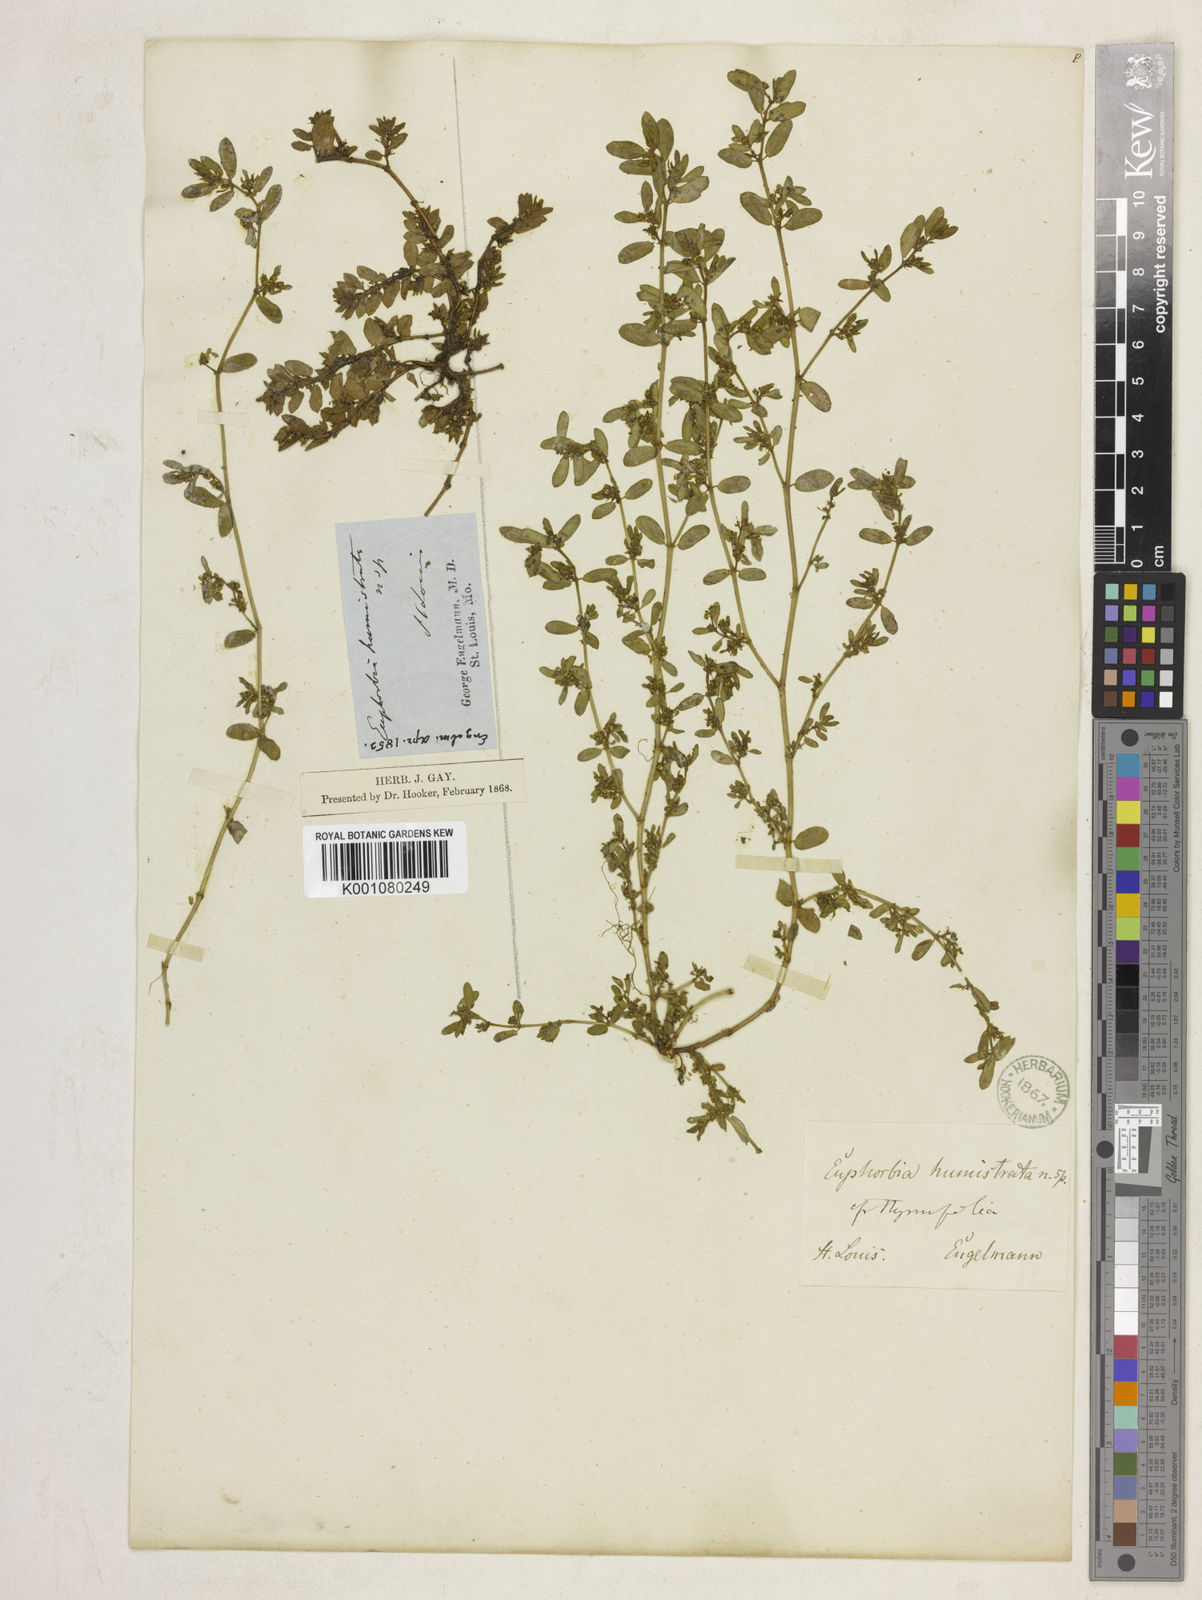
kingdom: Plantae
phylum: Tracheophyta
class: Magnoliopsida
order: Malpighiales
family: Euphorbiaceae
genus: Euphorbia
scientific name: Euphorbia
